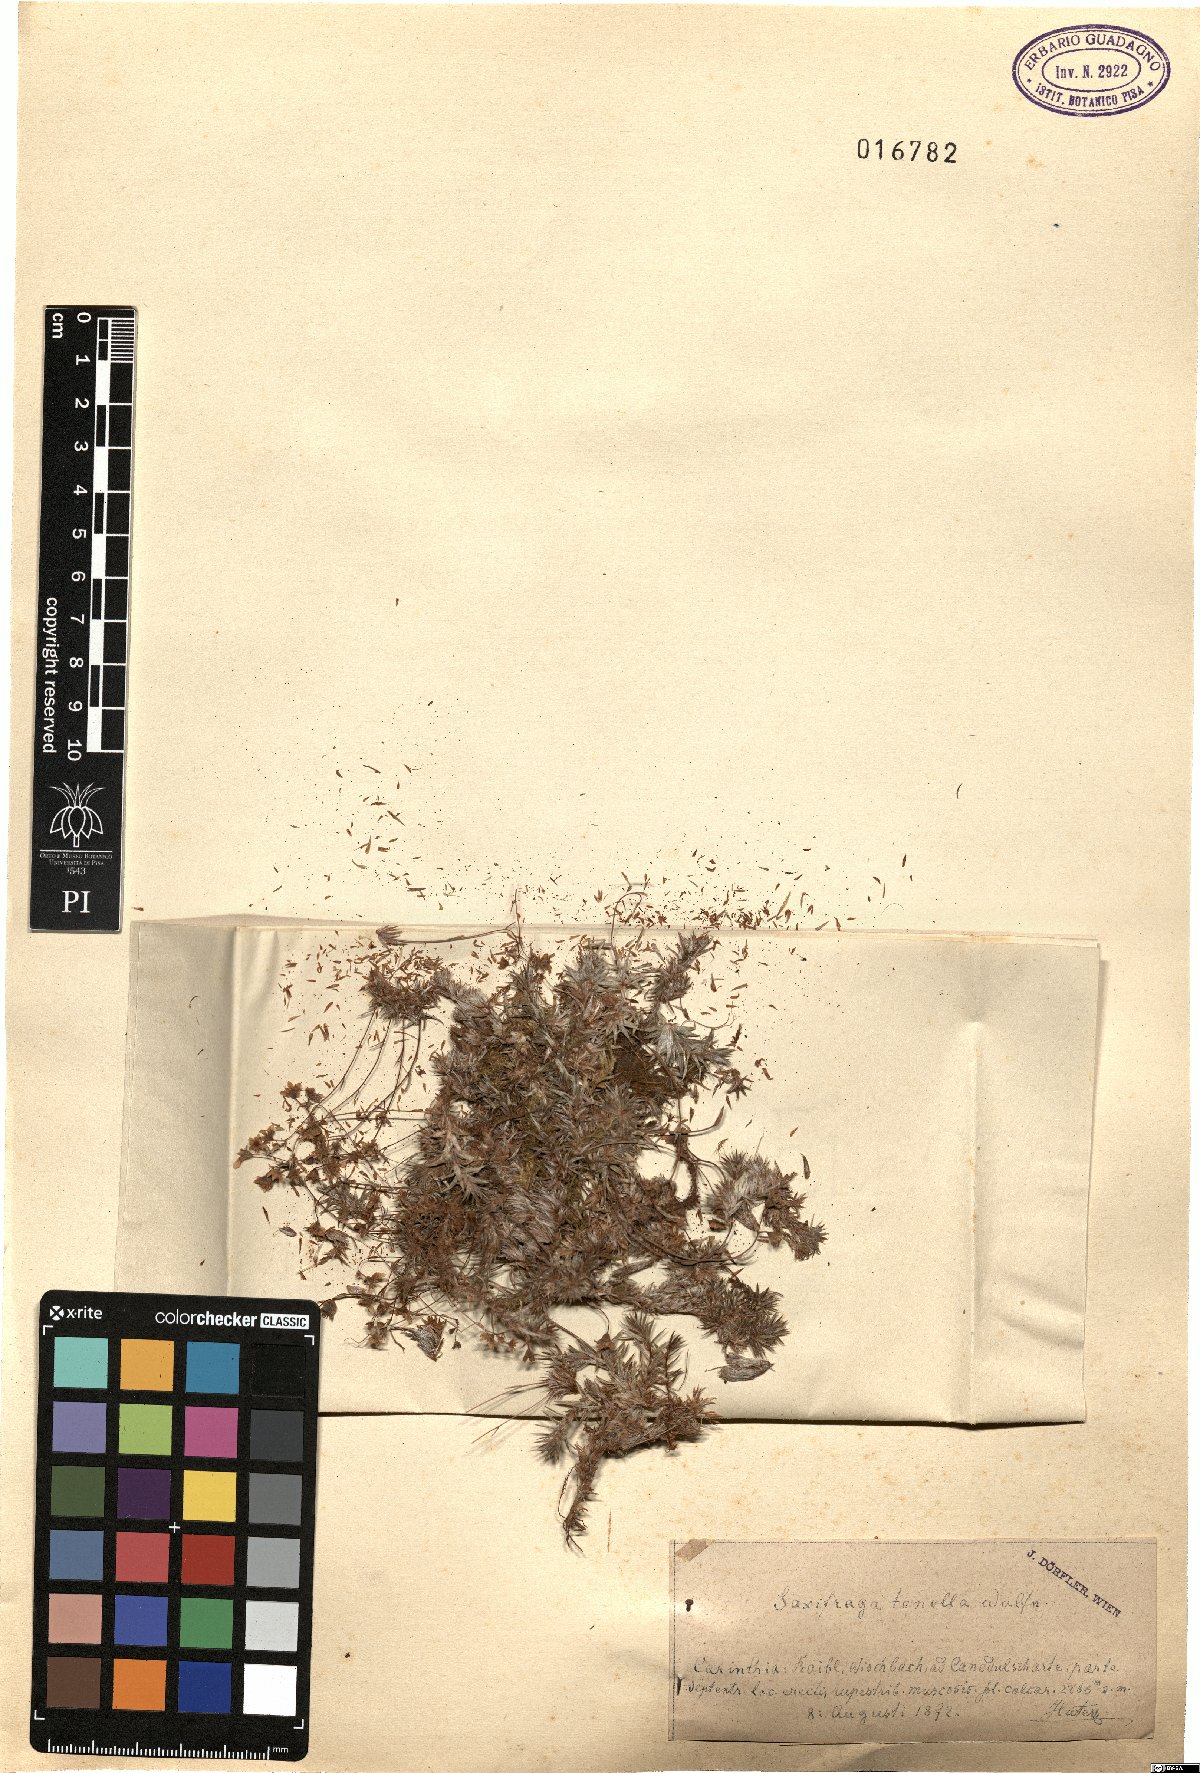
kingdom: Plantae
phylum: Tracheophyta
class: Magnoliopsida
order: Saxifragales
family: Saxifragaceae
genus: Saxifraga
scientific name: Saxifraga tenella
